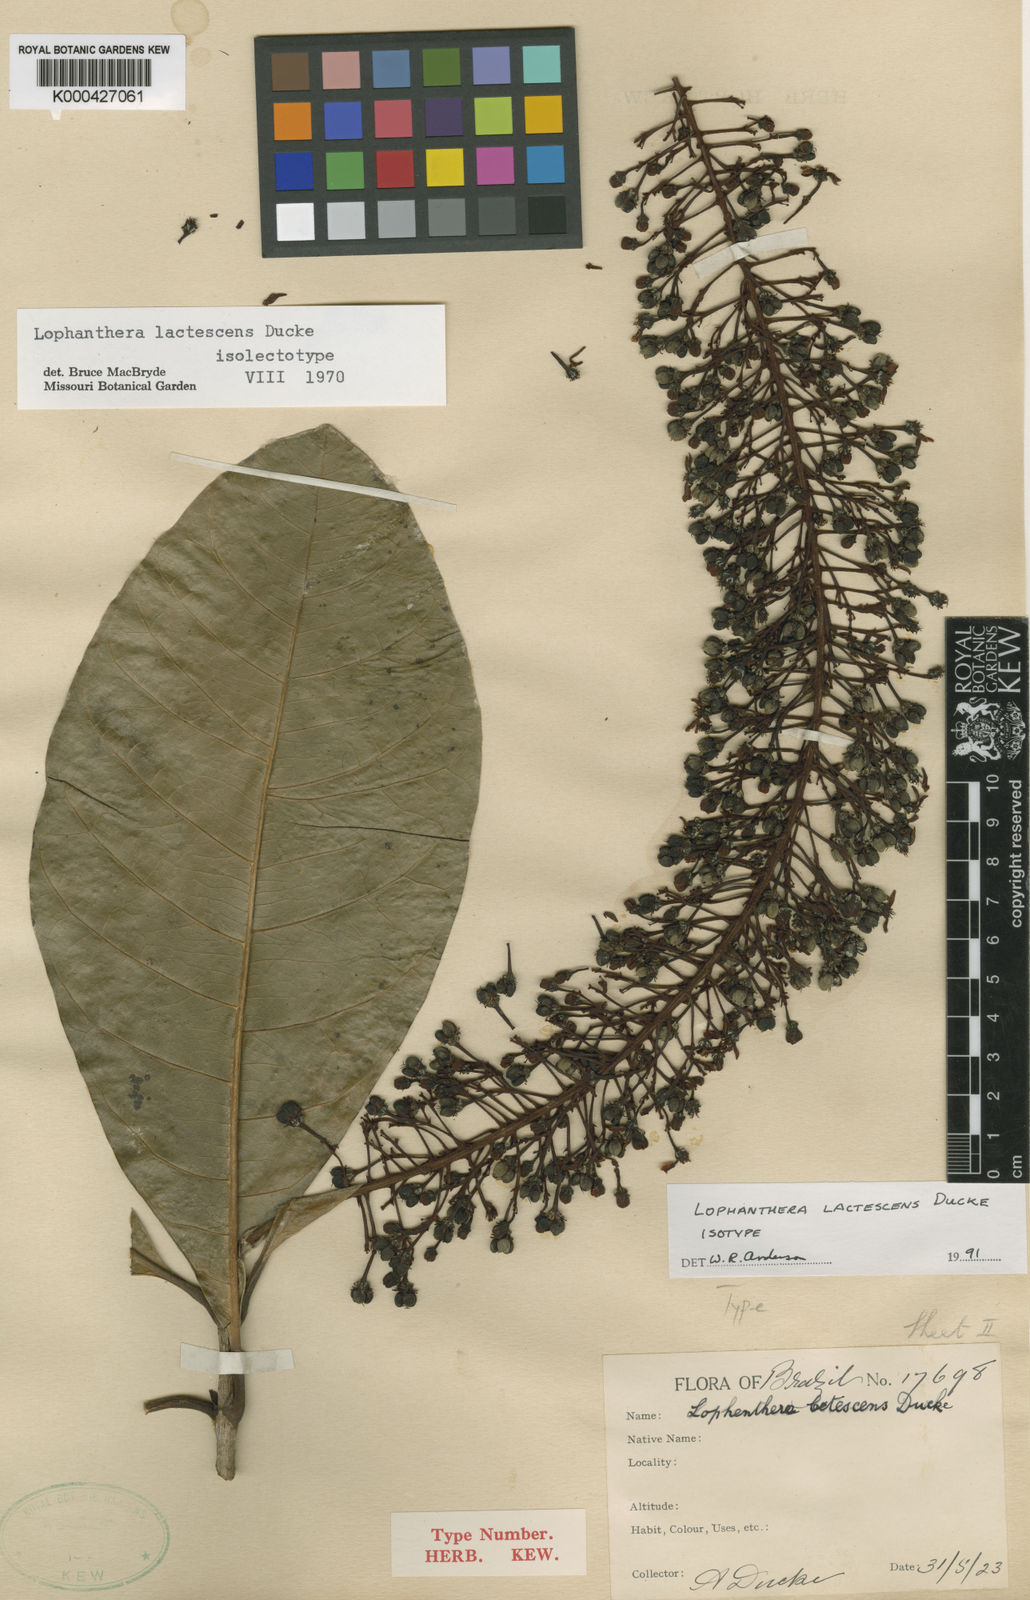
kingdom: Plantae
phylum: Tracheophyta
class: Magnoliopsida
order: Malpighiales
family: Malpighiaceae
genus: Lophanthera
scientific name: Lophanthera lactescens
